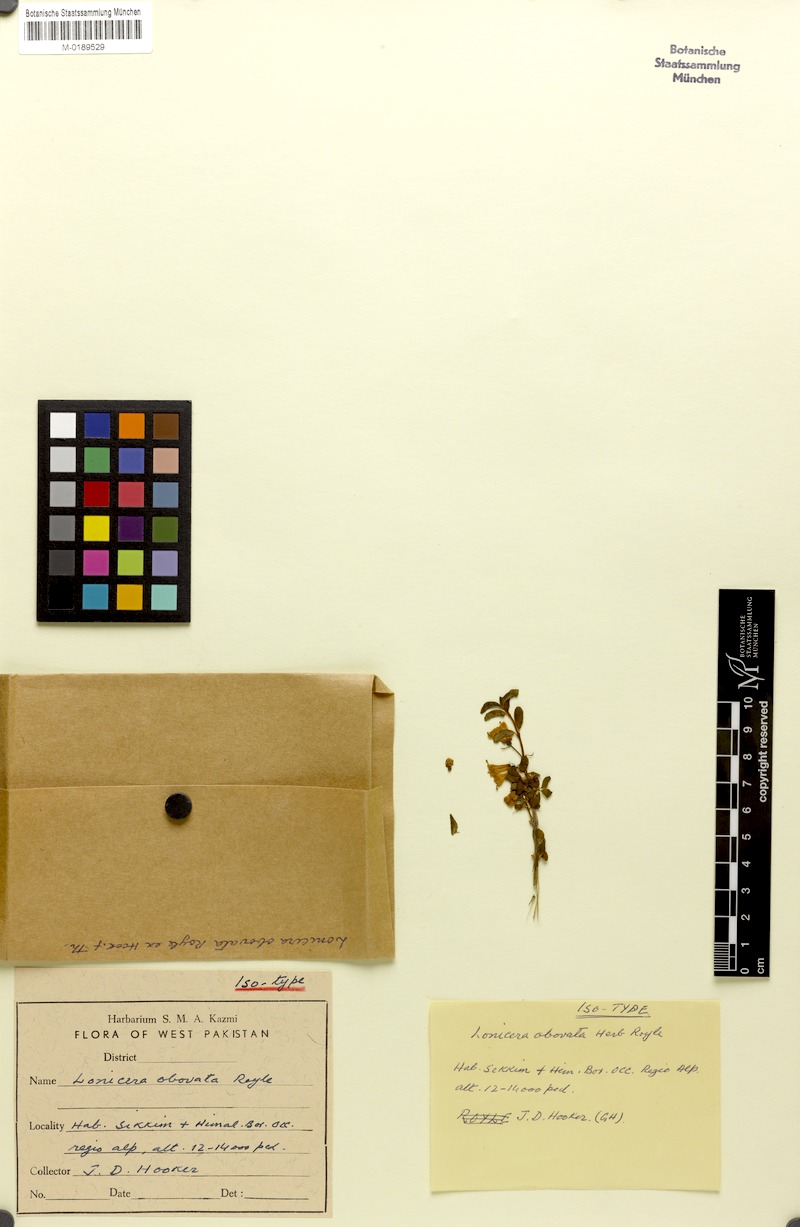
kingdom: Plantae
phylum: Tracheophyta
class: Magnoliopsida
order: Dipsacales
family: Caprifoliaceae
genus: Lonicera
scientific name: Lonicera obovata
